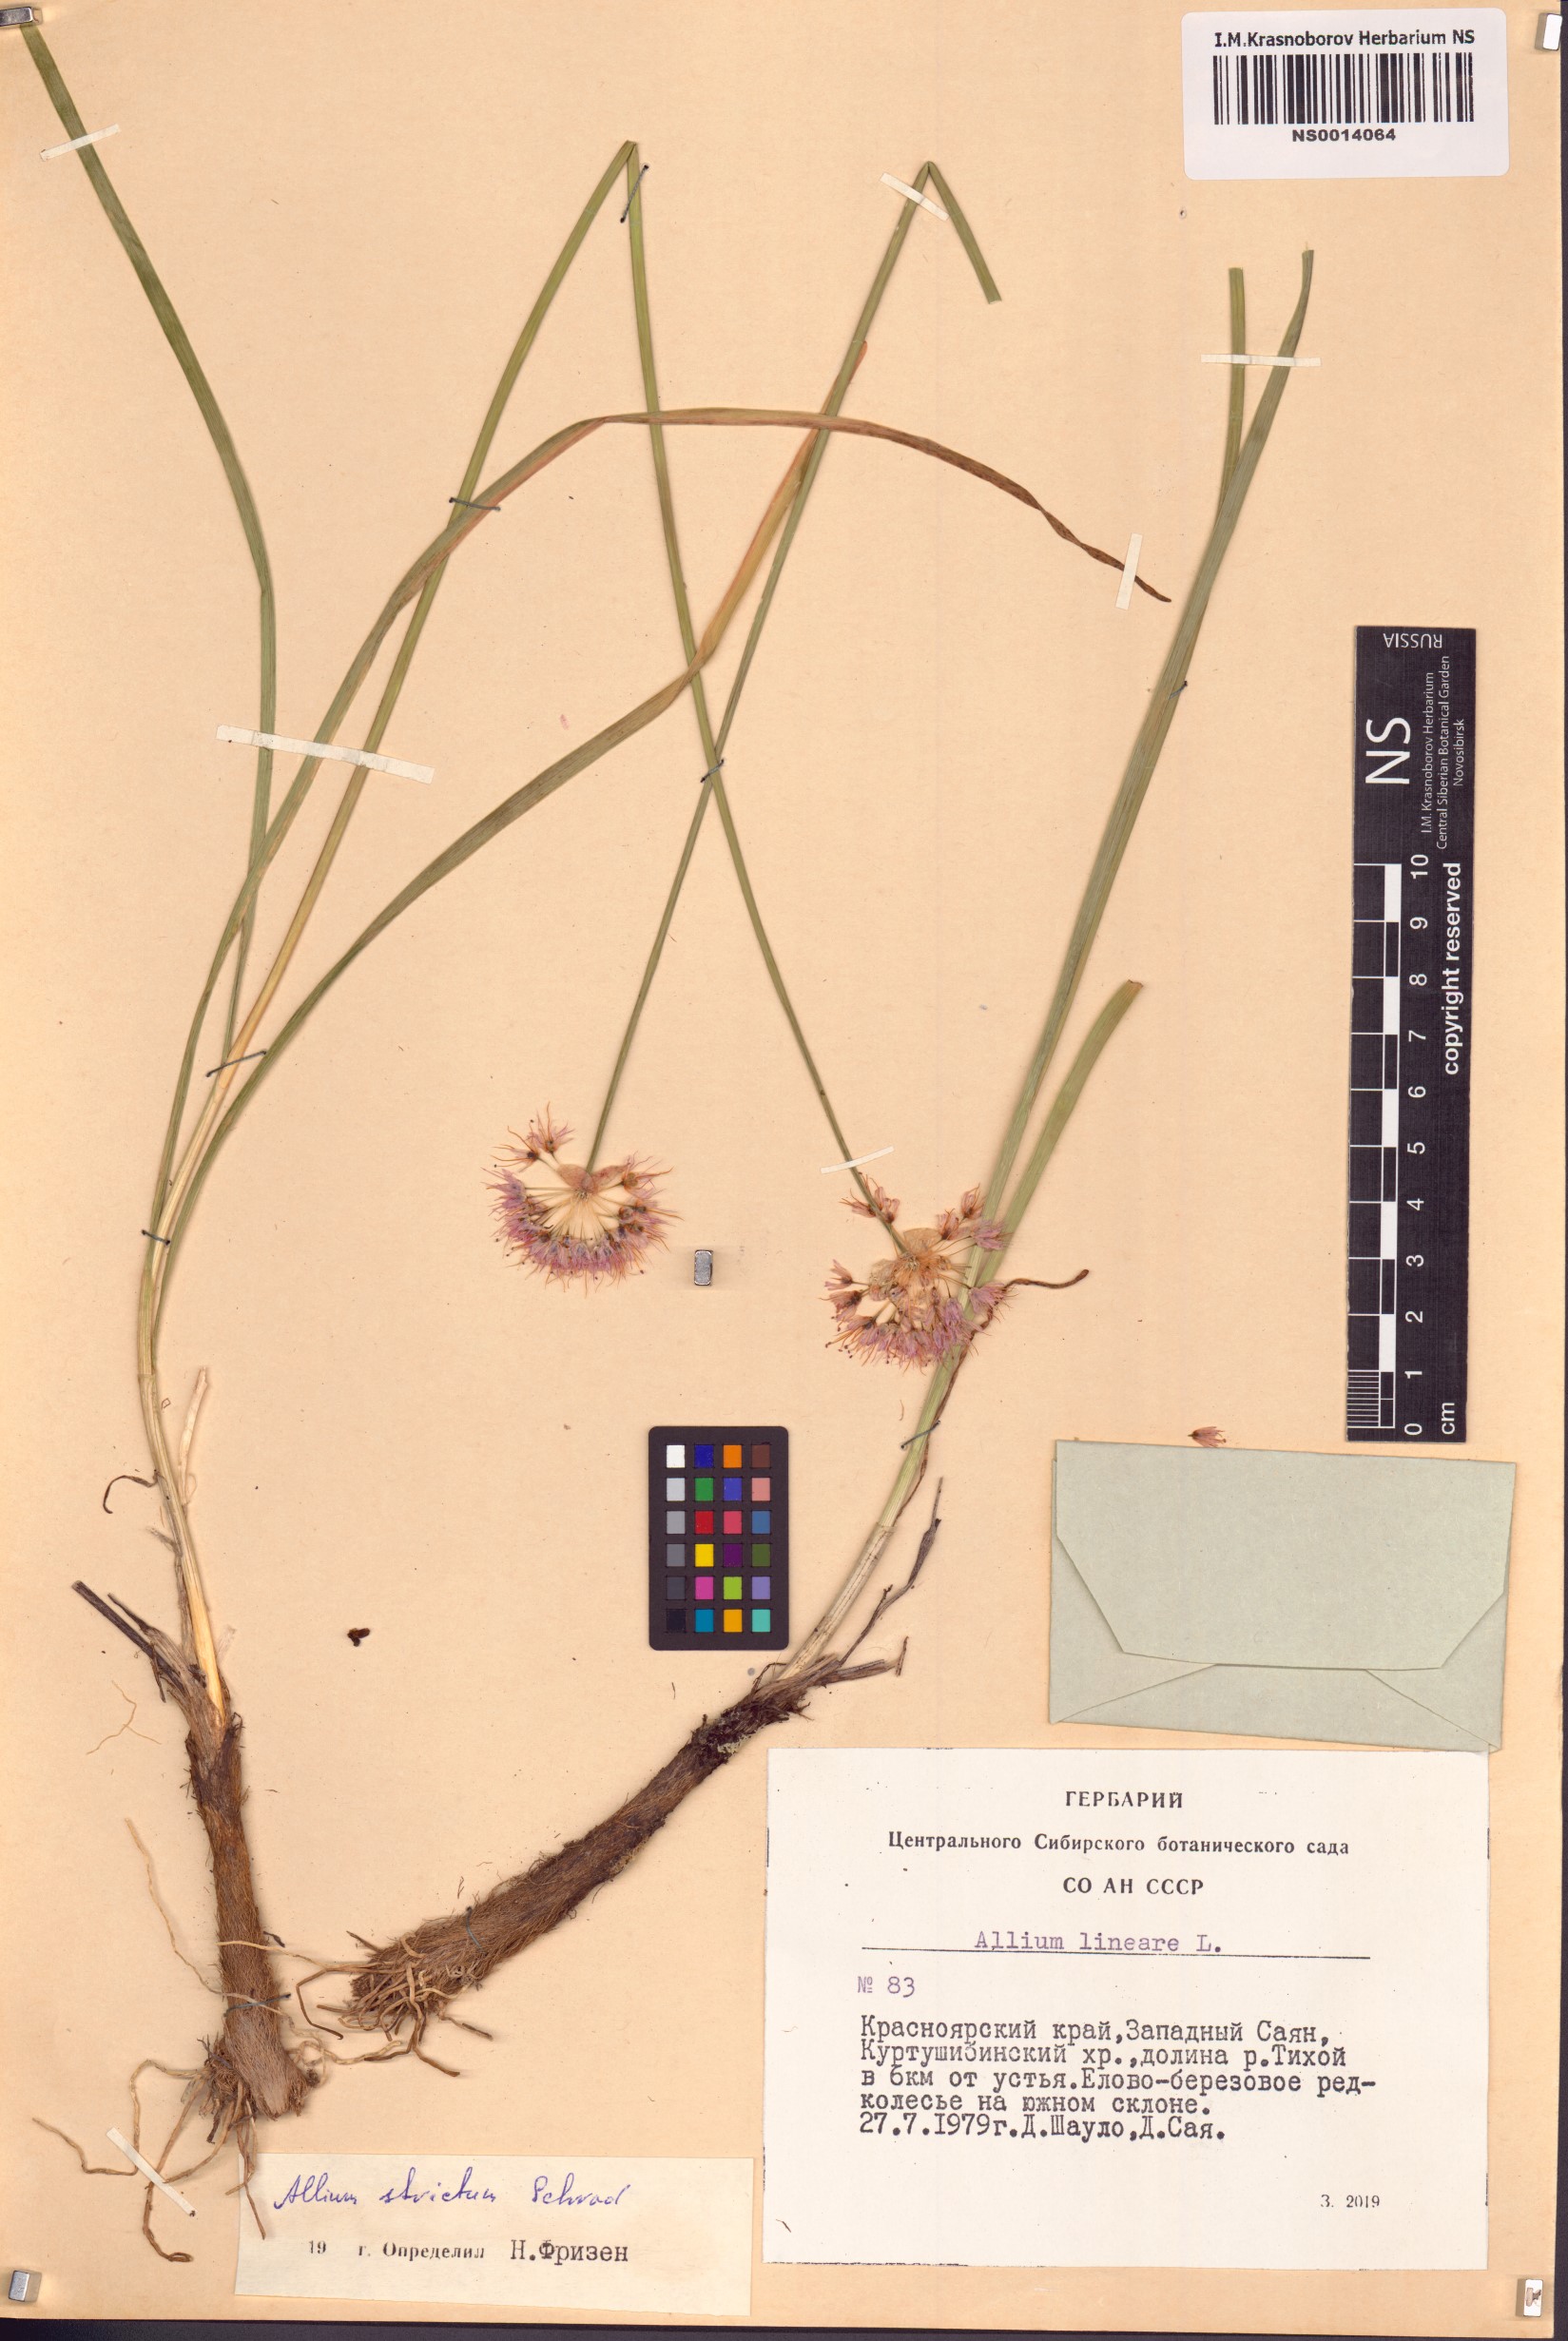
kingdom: Plantae
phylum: Tracheophyta
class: Liliopsida
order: Asparagales
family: Amaryllidaceae
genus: Allium
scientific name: Allium strictum
